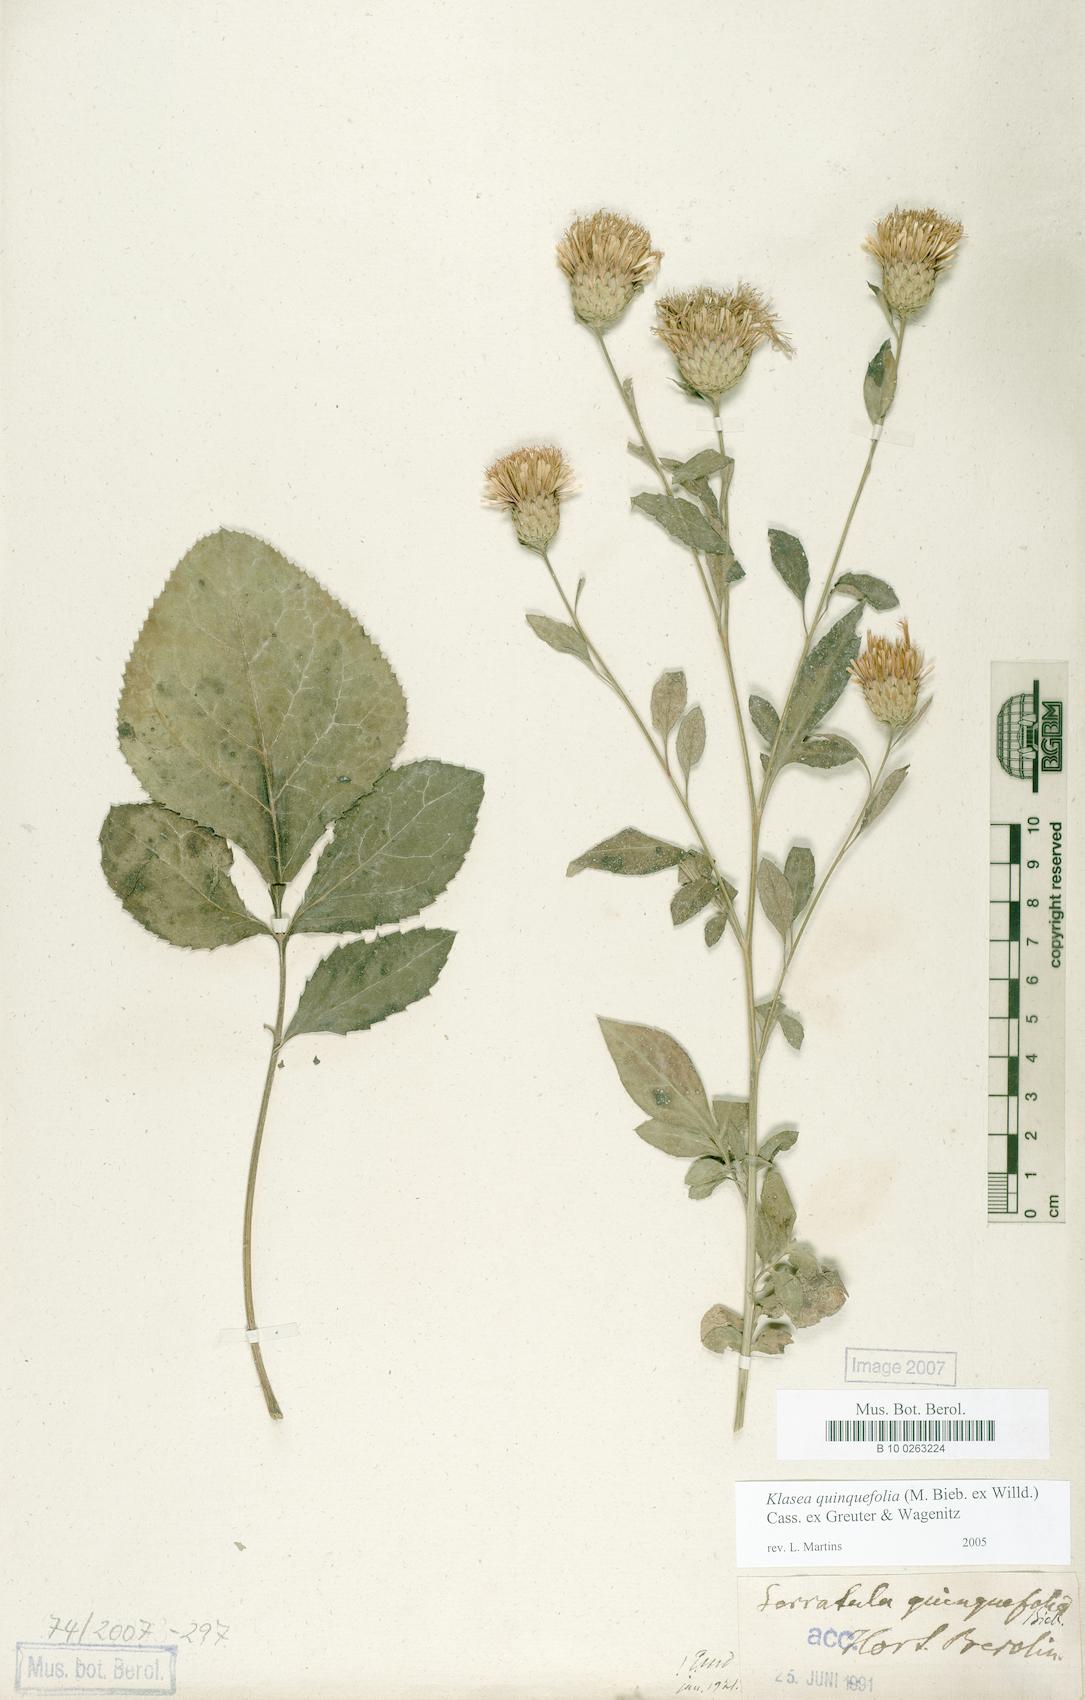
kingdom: Plantae
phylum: Tracheophyta
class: Magnoliopsida
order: Asterales
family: Asteraceae
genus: Klasea
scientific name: Klasea quinquefolia
